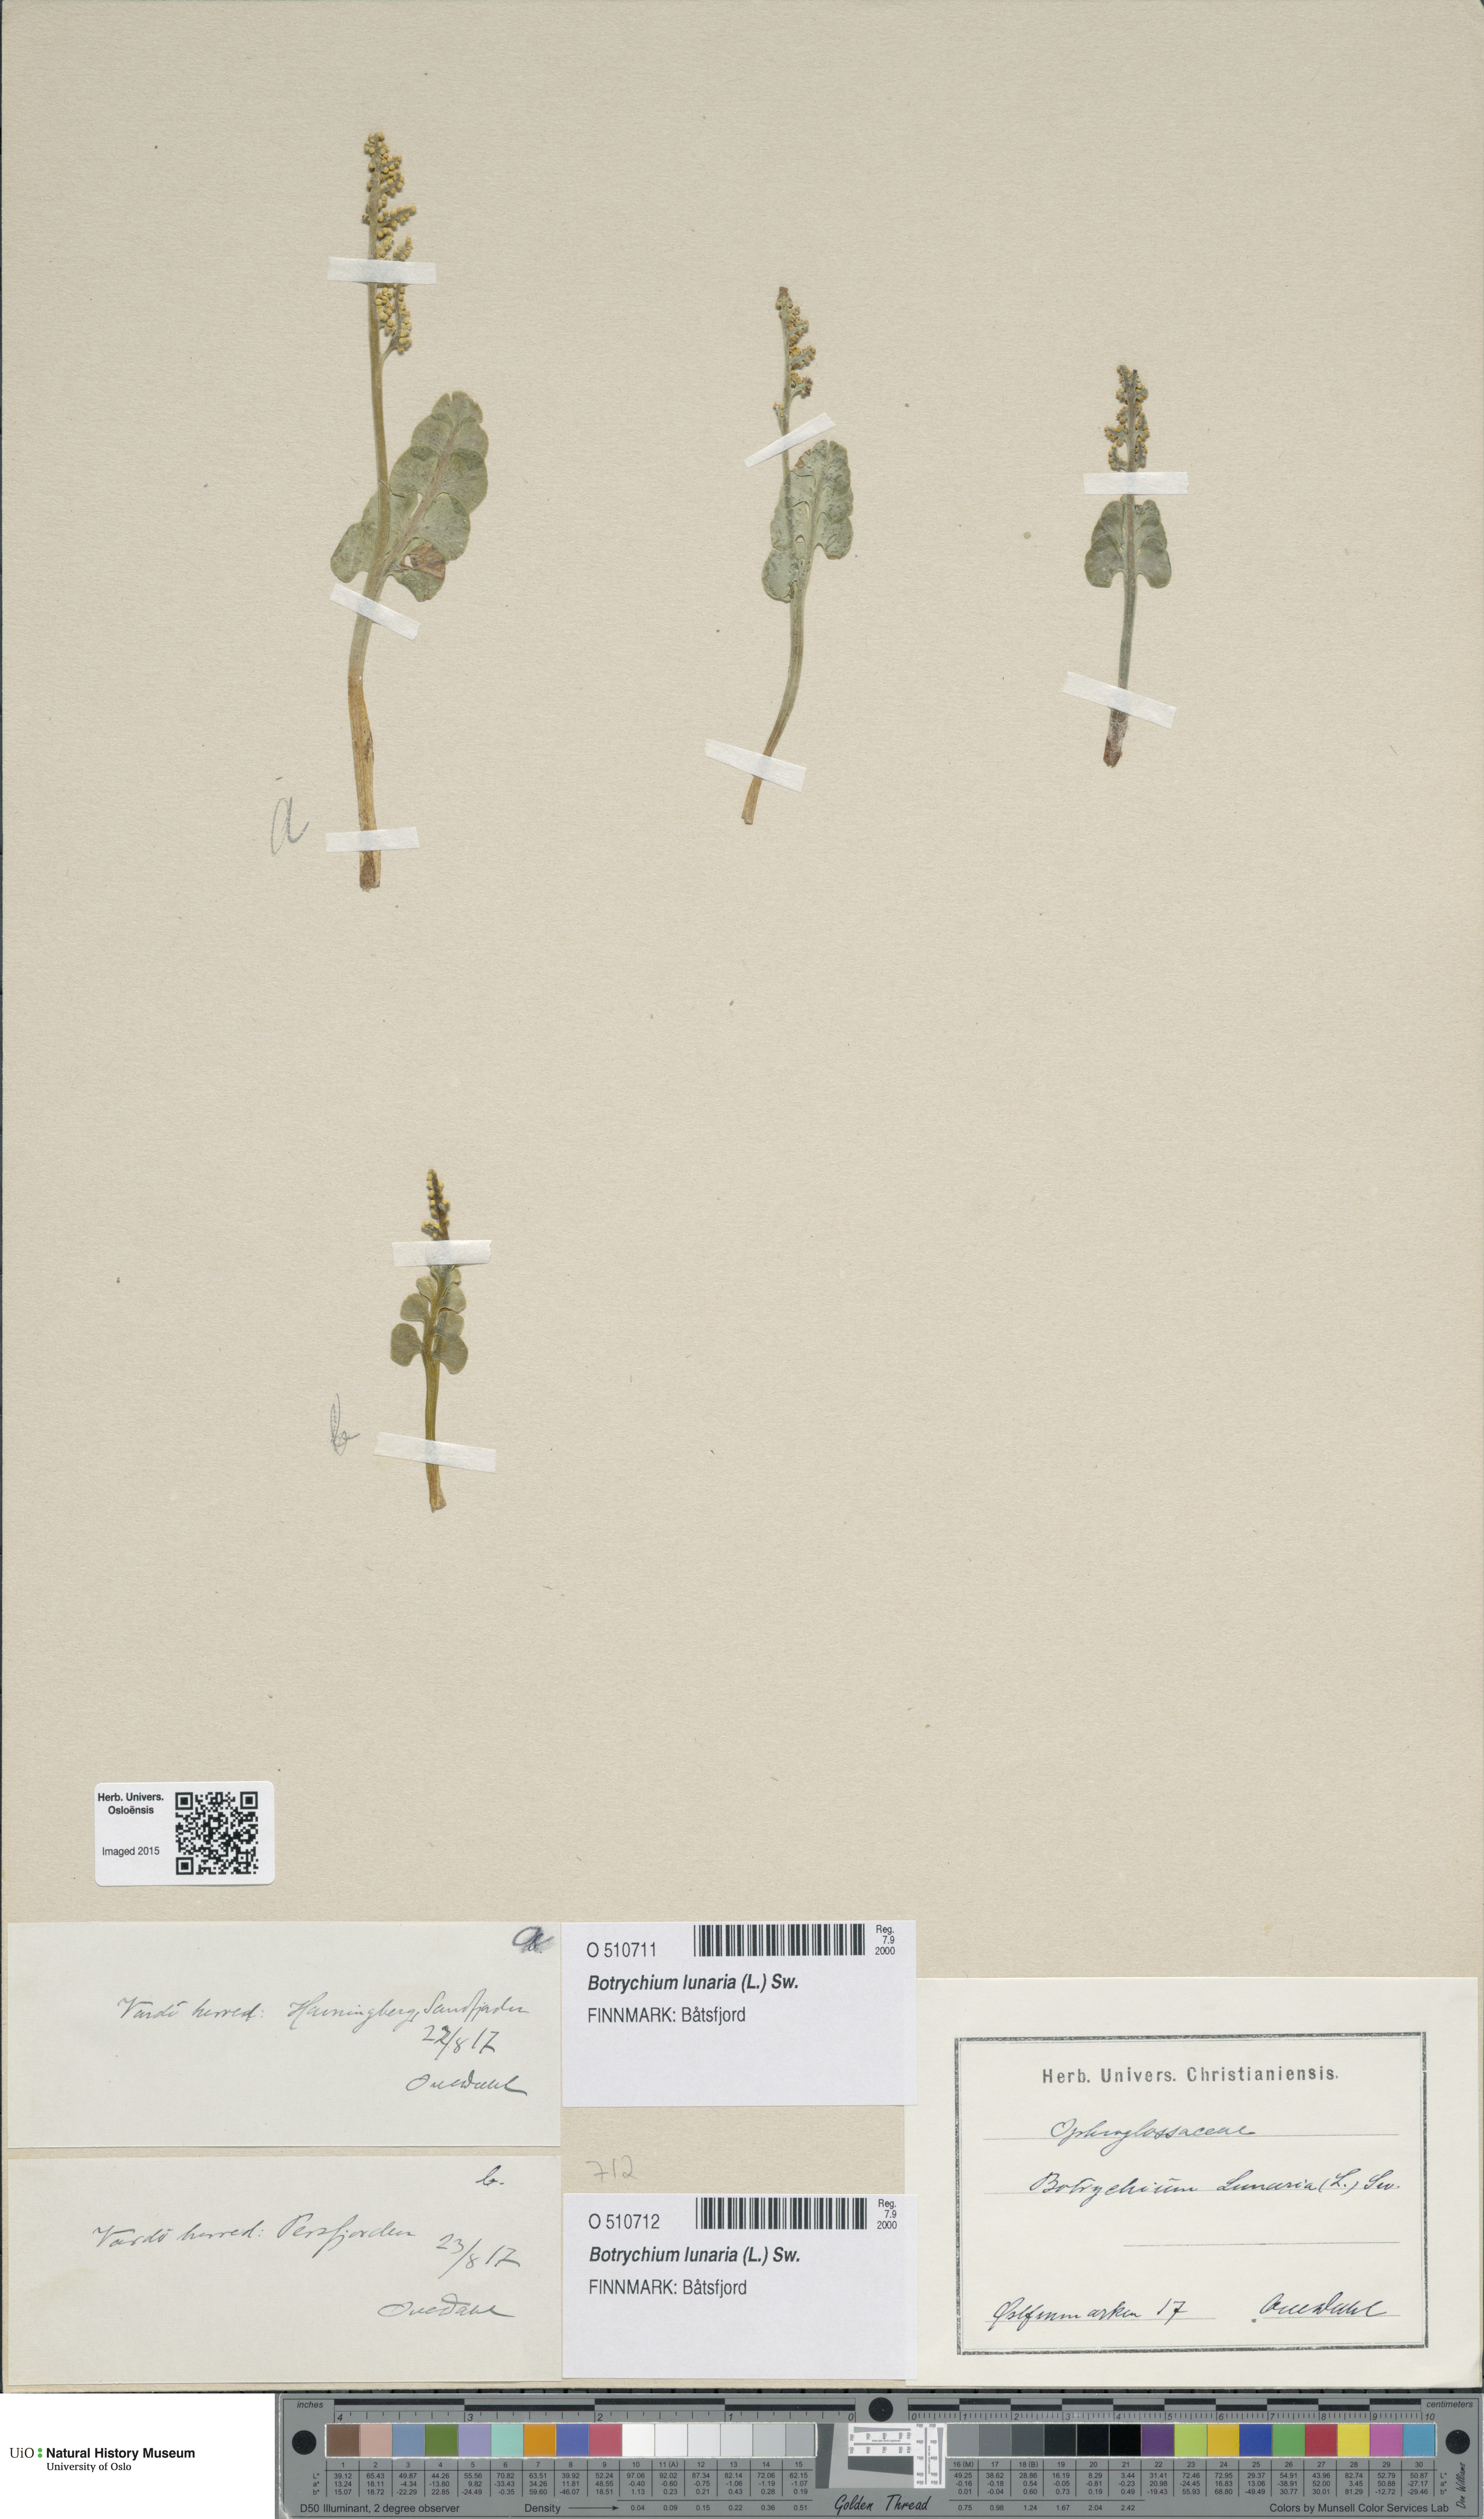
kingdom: Plantae
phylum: Tracheophyta
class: Polypodiopsida
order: Ophioglossales
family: Ophioglossaceae
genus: Botrychium
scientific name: Botrychium lunaria
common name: Moonwort
